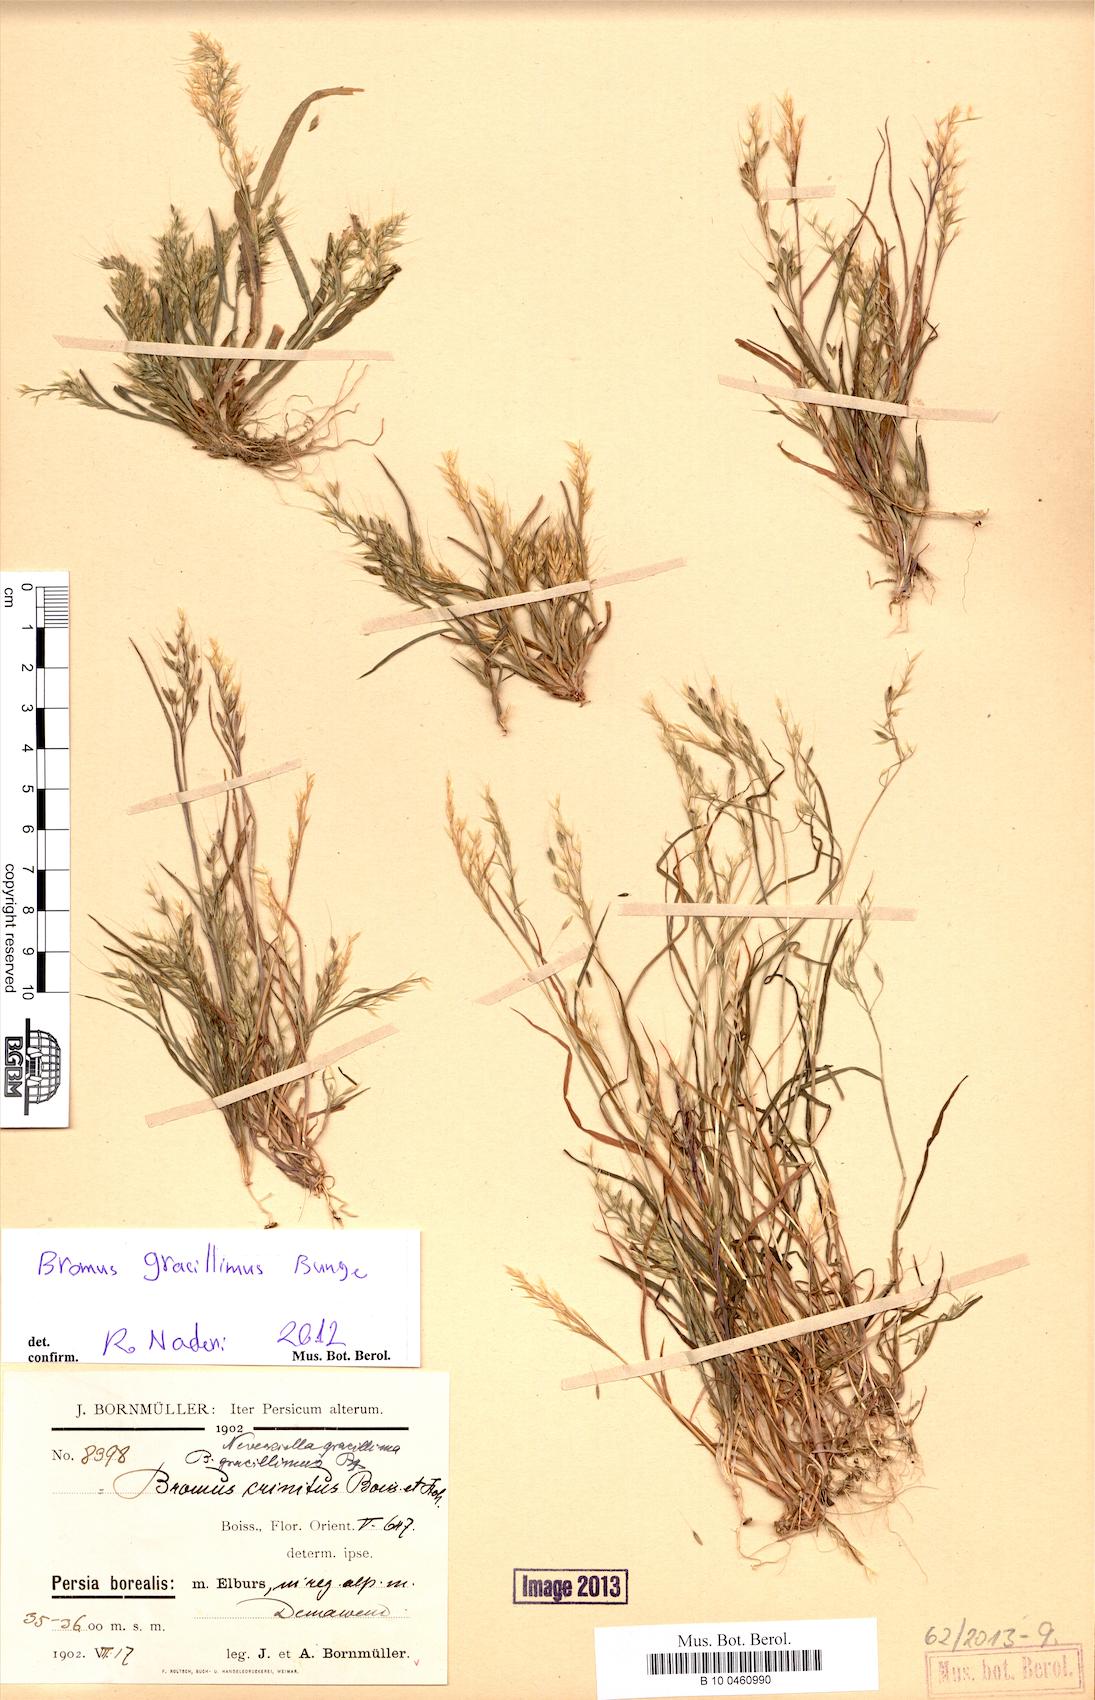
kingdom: Plantae
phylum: Tracheophyta
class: Liliopsida
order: Poales
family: Poaceae
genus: Bromus
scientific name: Bromus gracillimus
